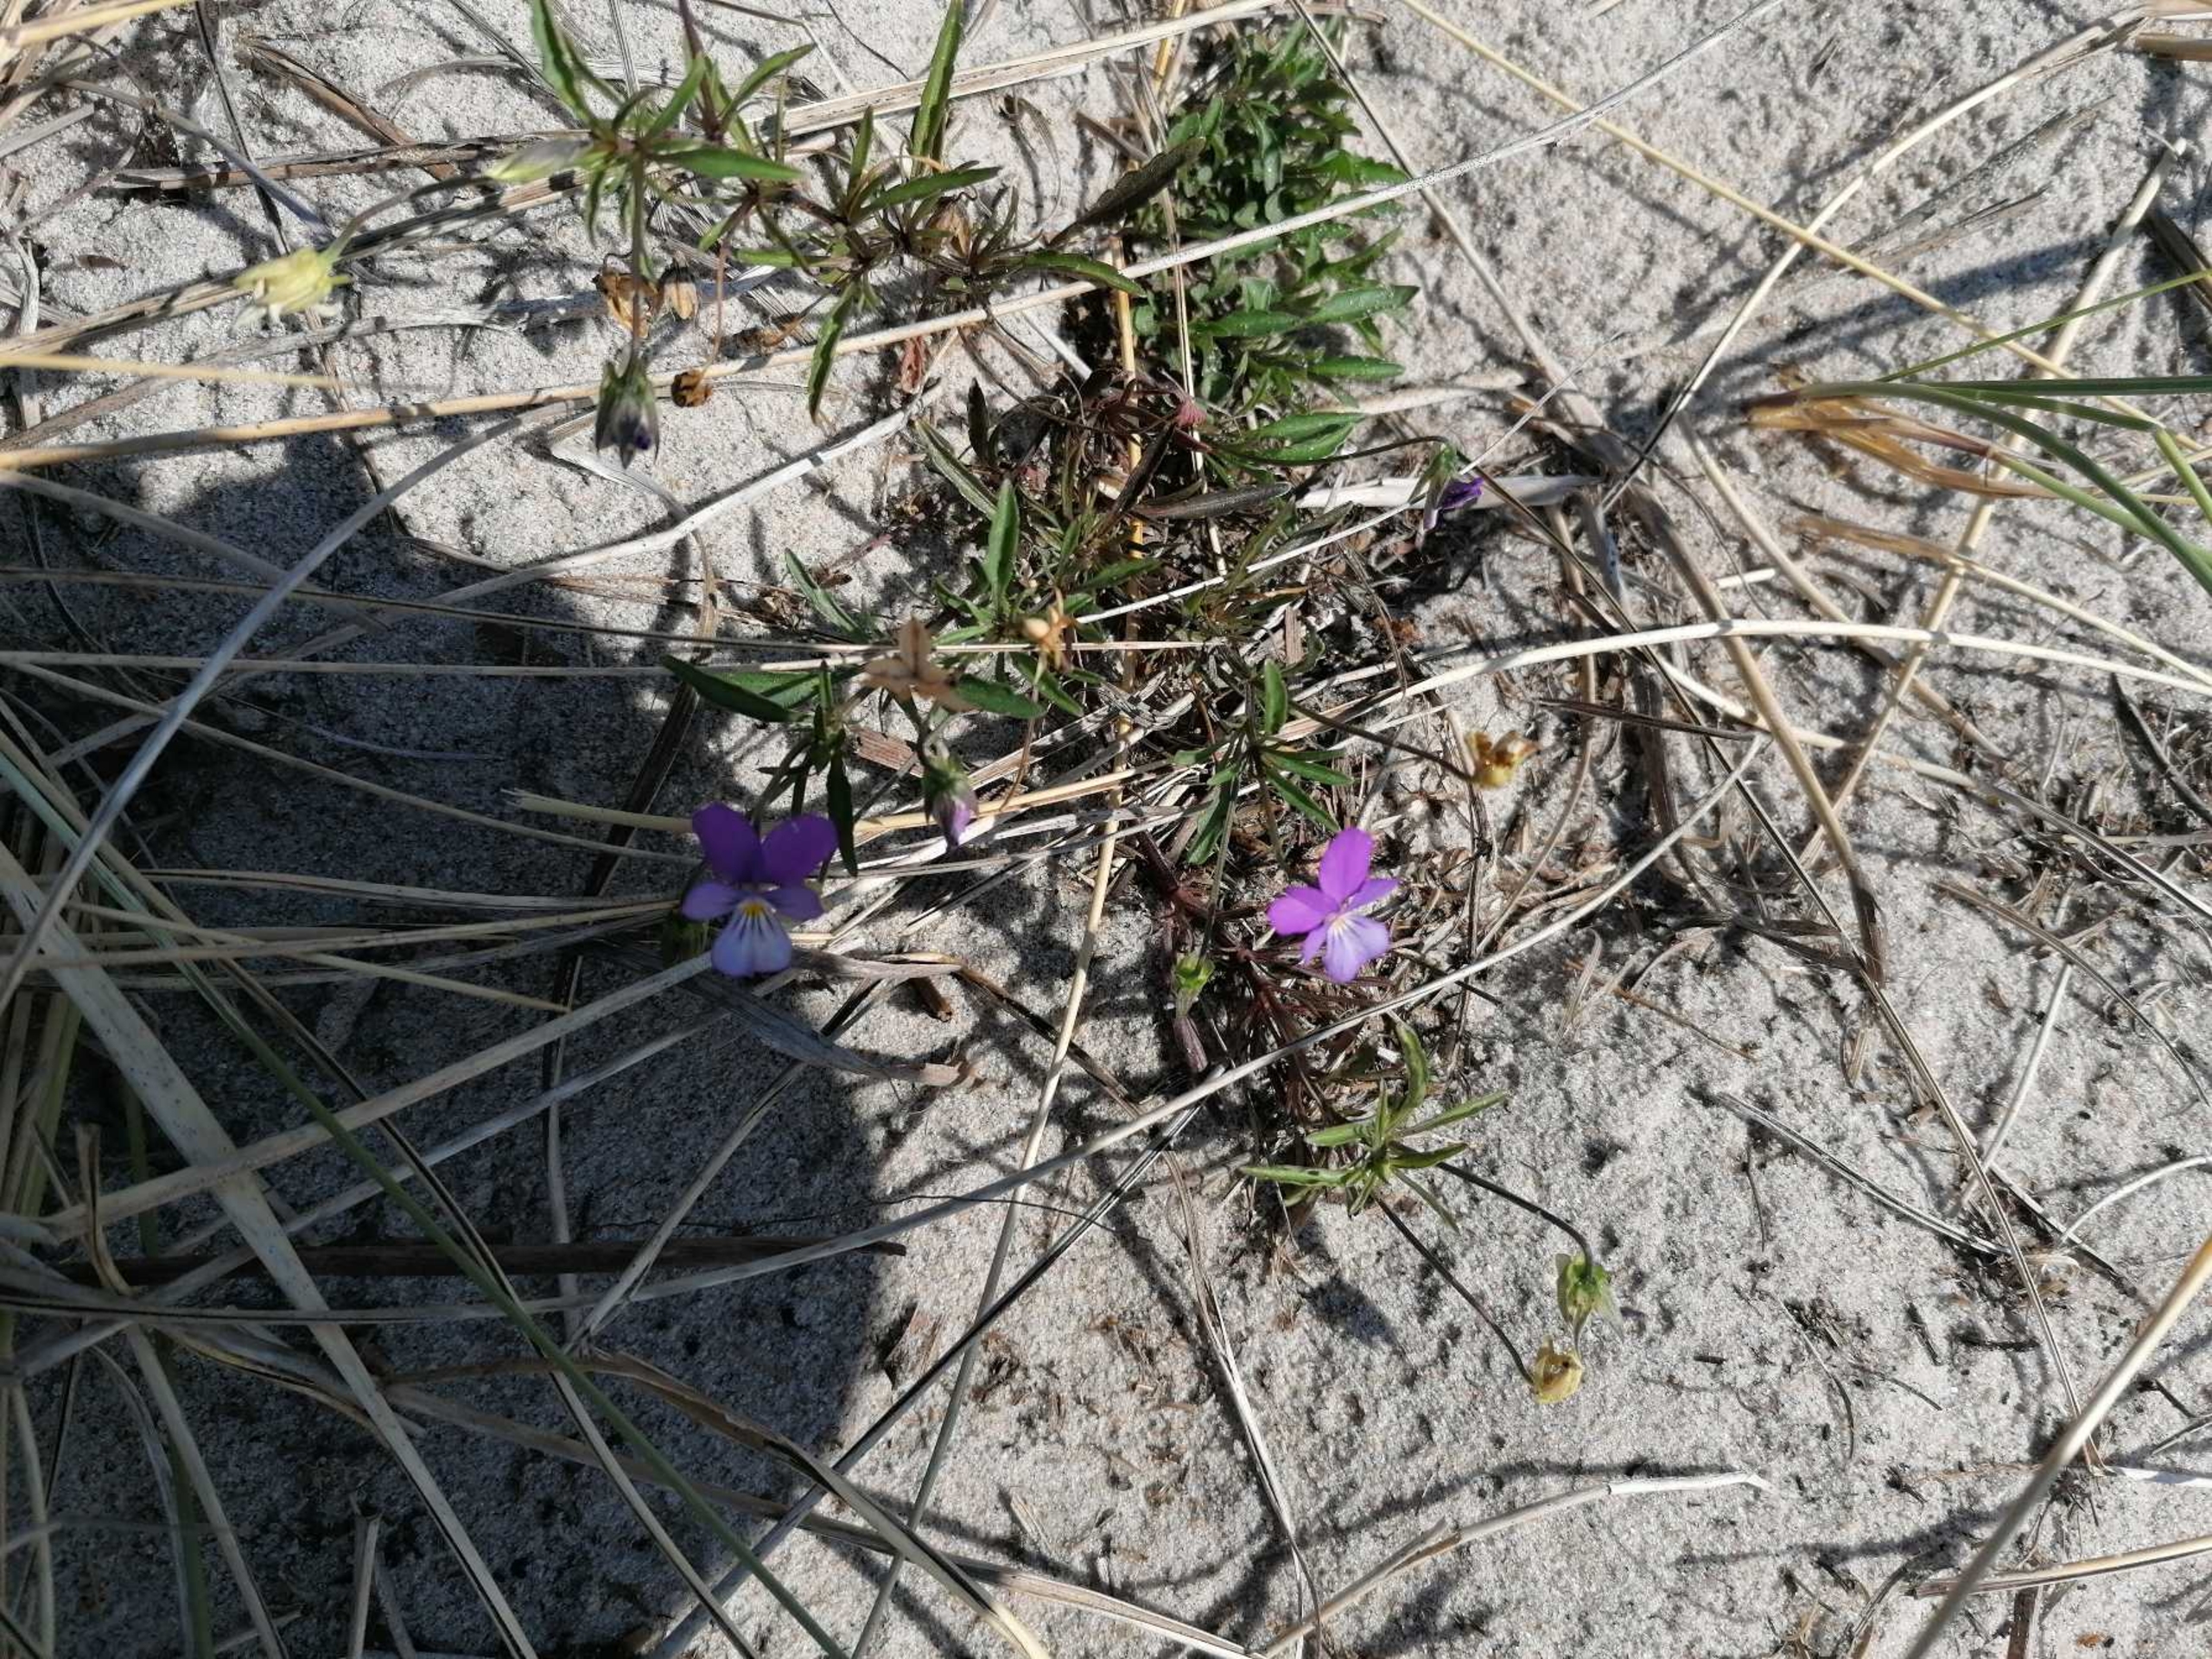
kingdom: Plantae
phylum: Tracheophyta
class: Magnoliopsida
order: Malpighiales
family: Violaceae
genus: Viola
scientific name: Viola tricolor
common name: Stedmoderblomst
